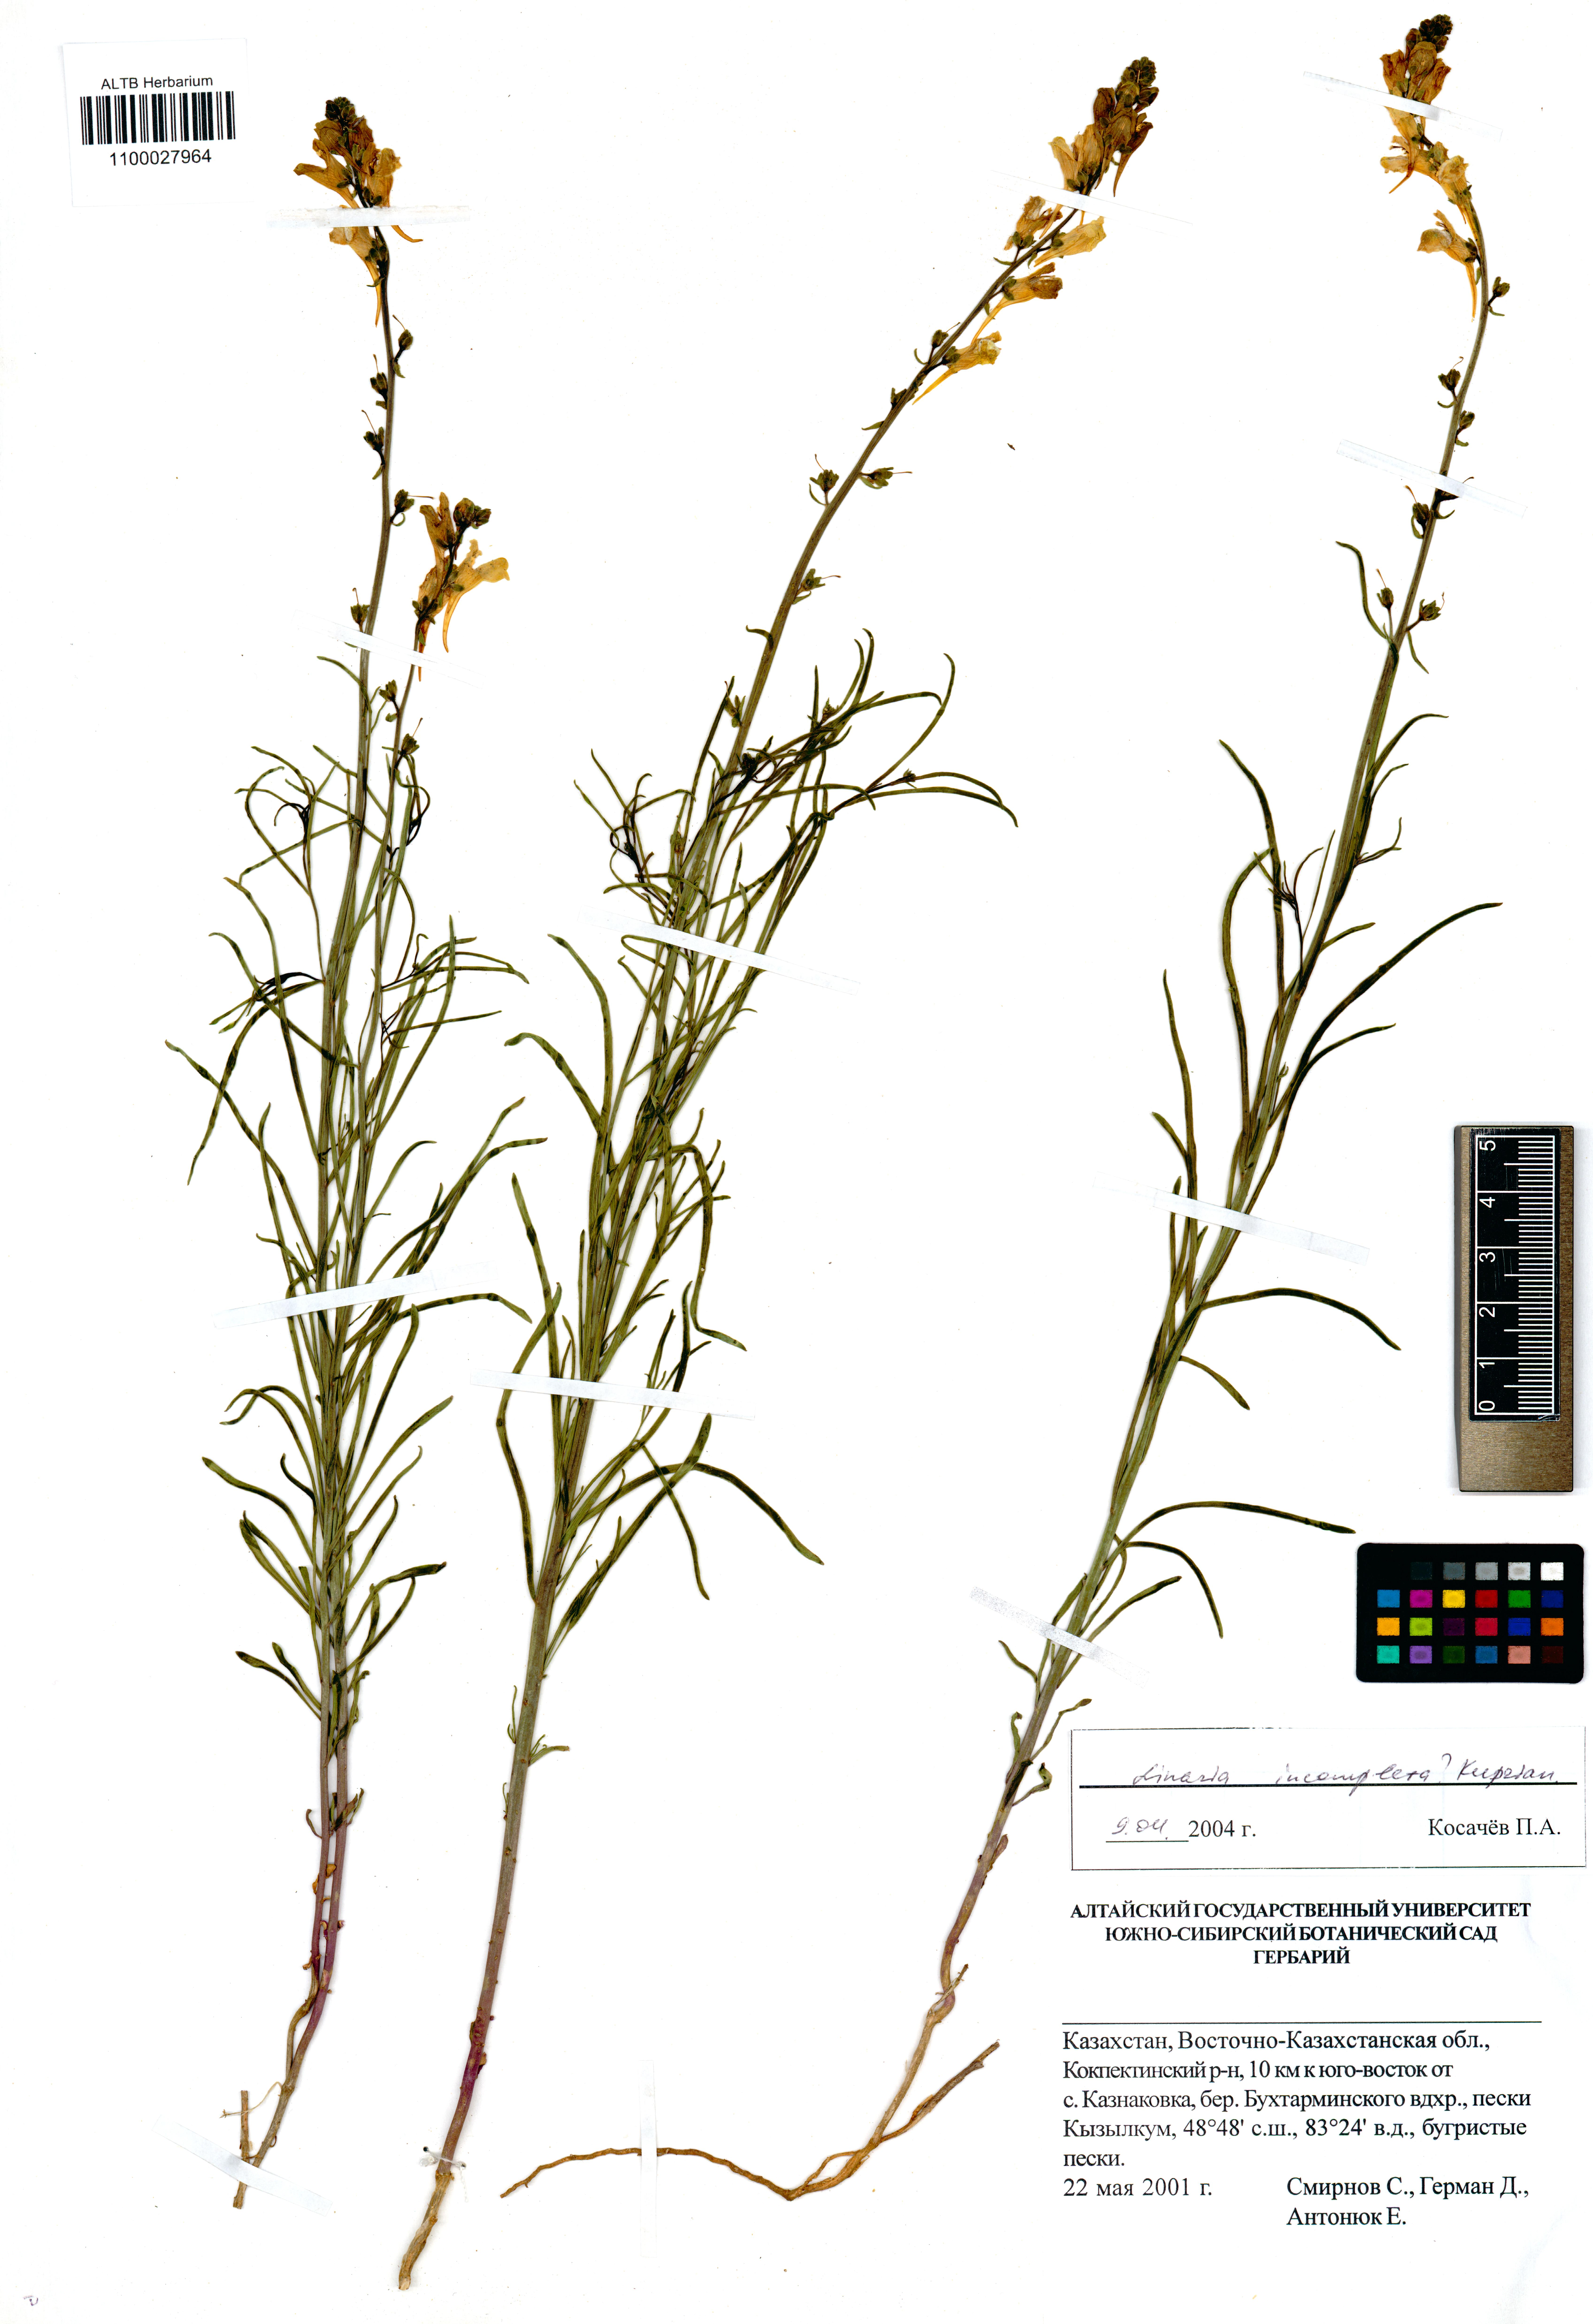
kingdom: Plantae
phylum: Tracheophyta
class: Magnoliopsida
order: Lamiales
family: Plantaginaceae
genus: Linaria
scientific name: Linaria incompleta
